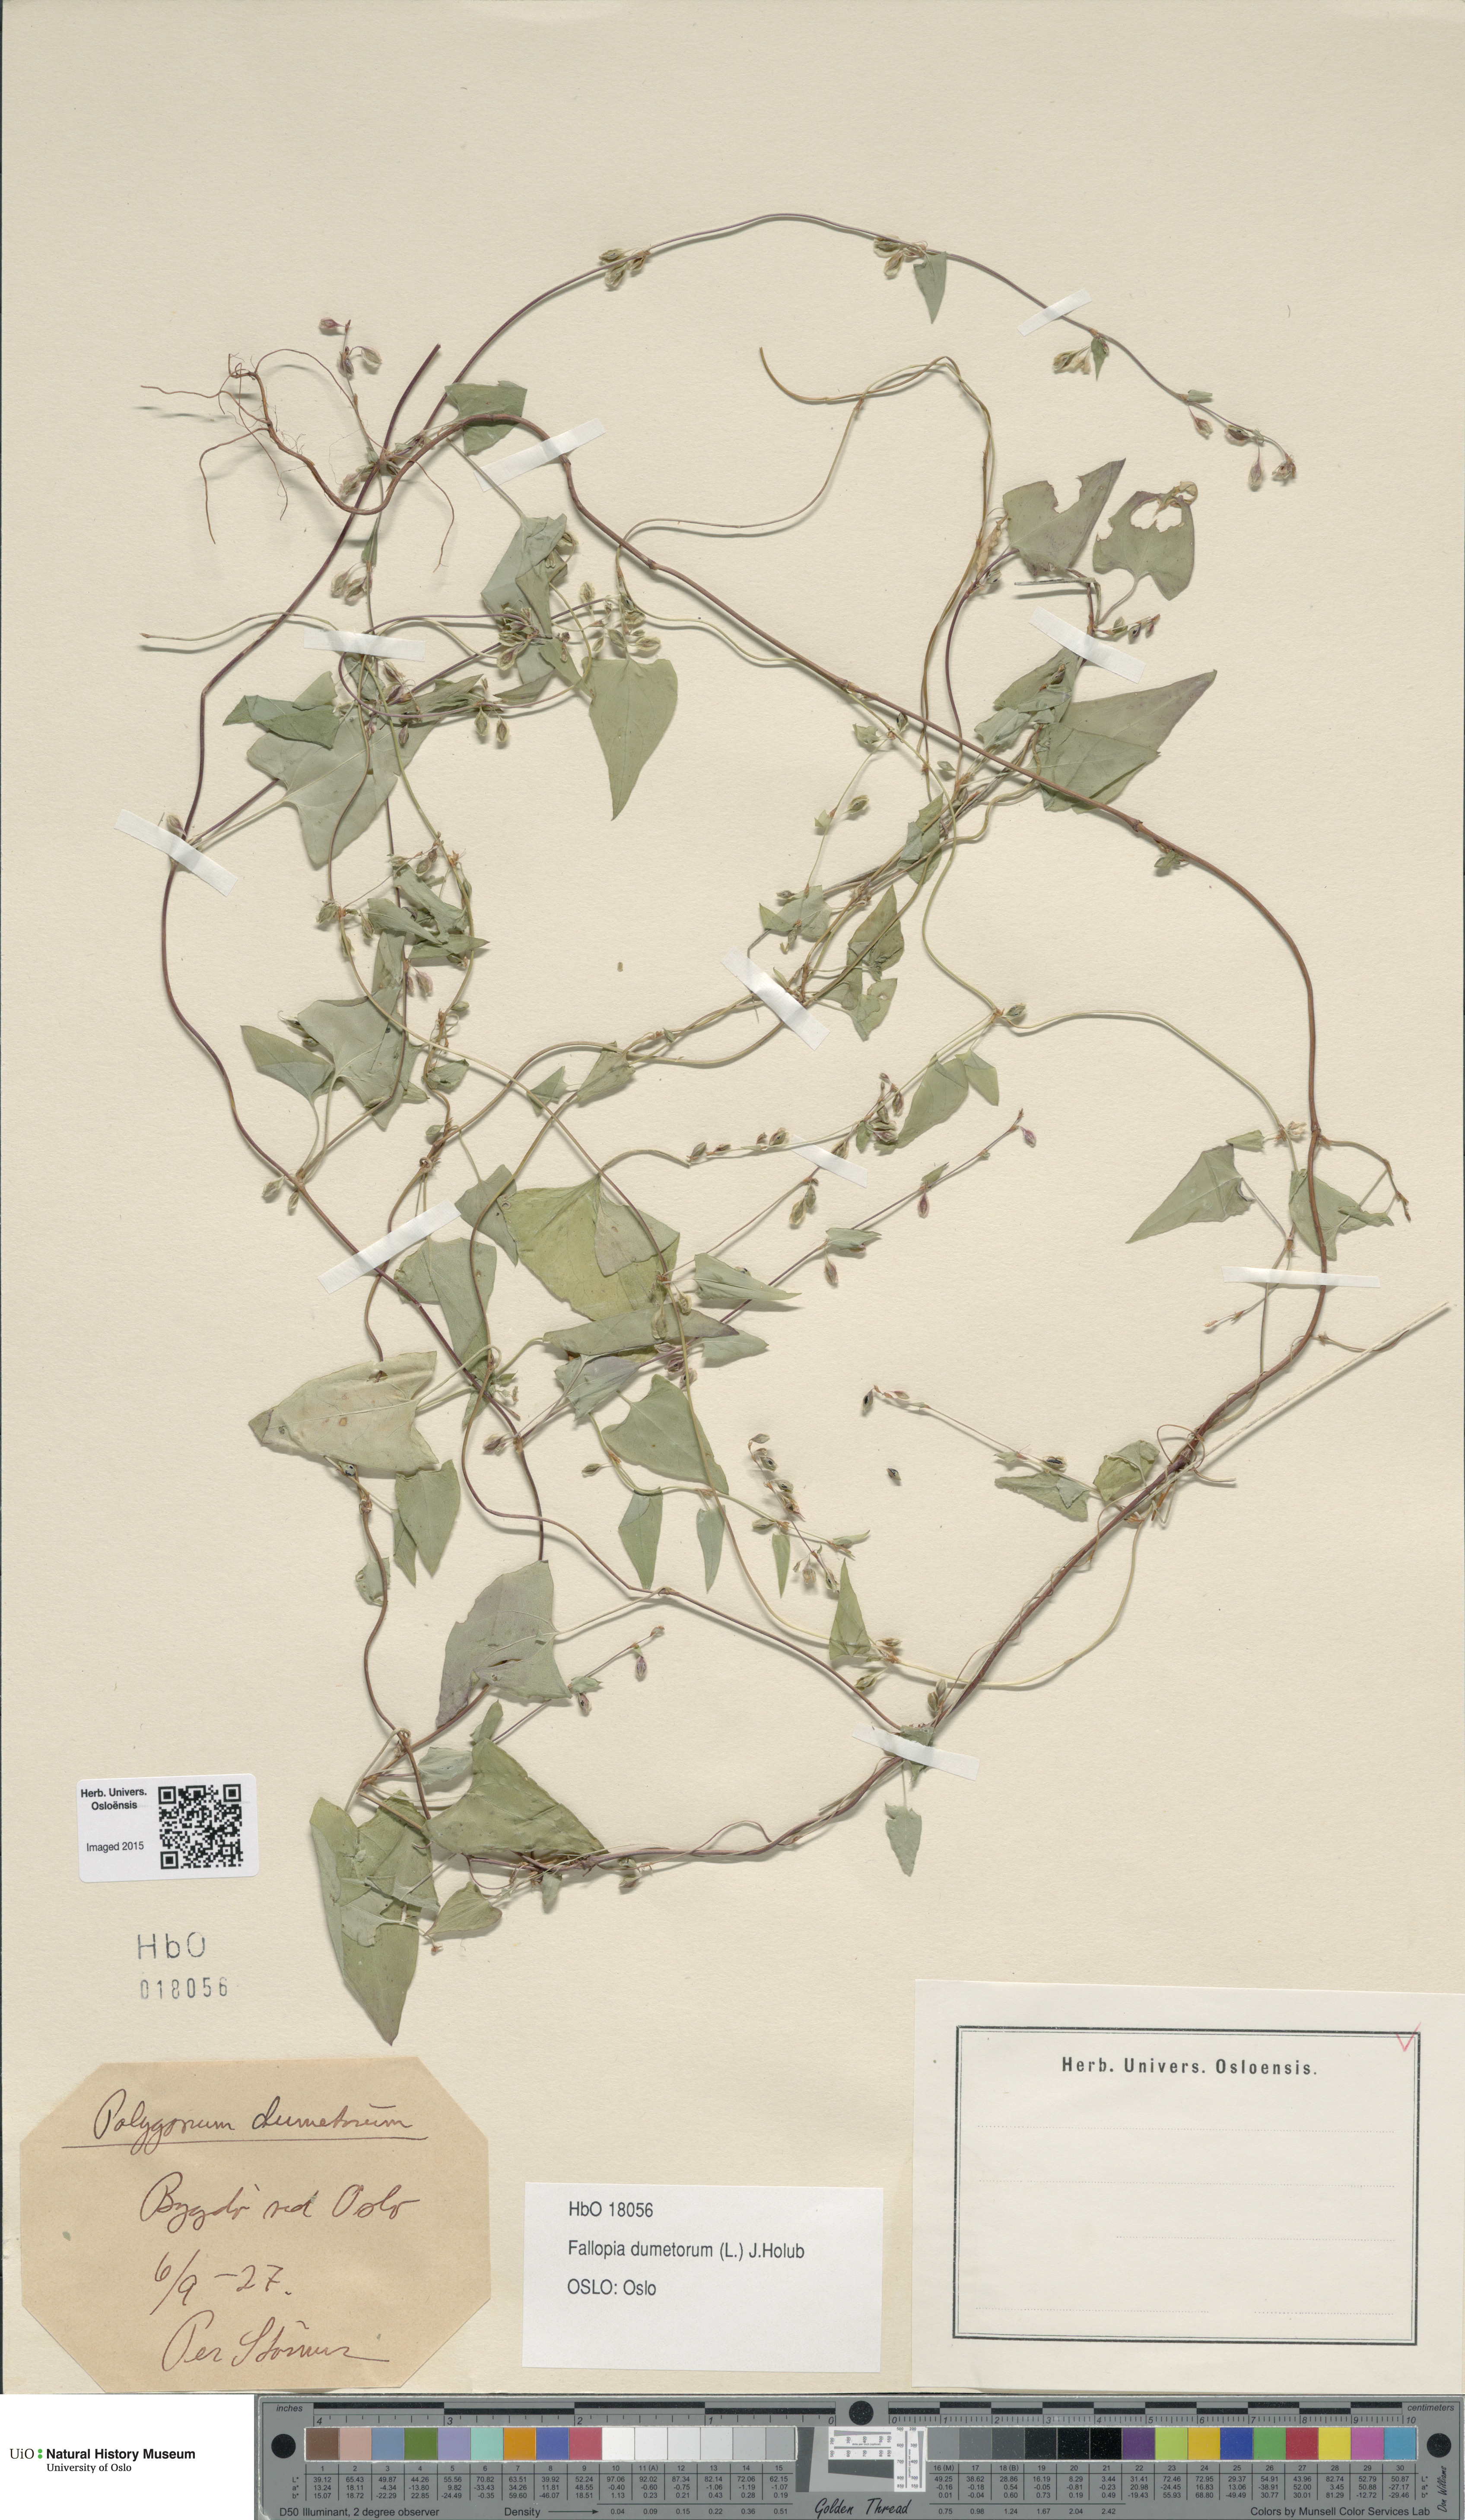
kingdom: Plantae
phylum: Tracheophyta
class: Magnoliopsida
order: Caryophyllales
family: Polygonaceae
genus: Fallopia
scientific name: Fallopia dumetorum
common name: Copse-bindweed
